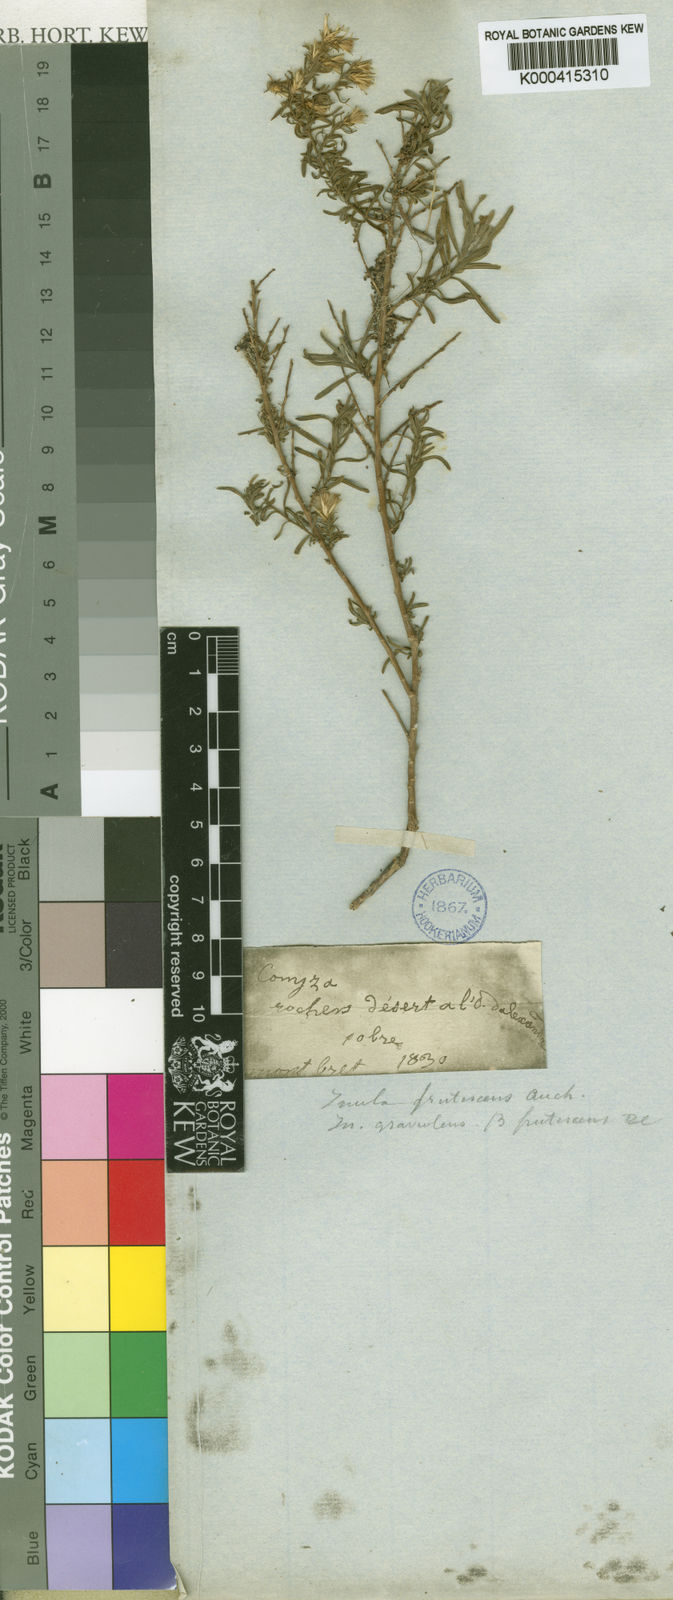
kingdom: Plantae
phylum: Tracheophyta
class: Magnoliopsida
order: Asterales
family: Asteraceae
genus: Chiliadenus
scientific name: Chiliadenus candicans
